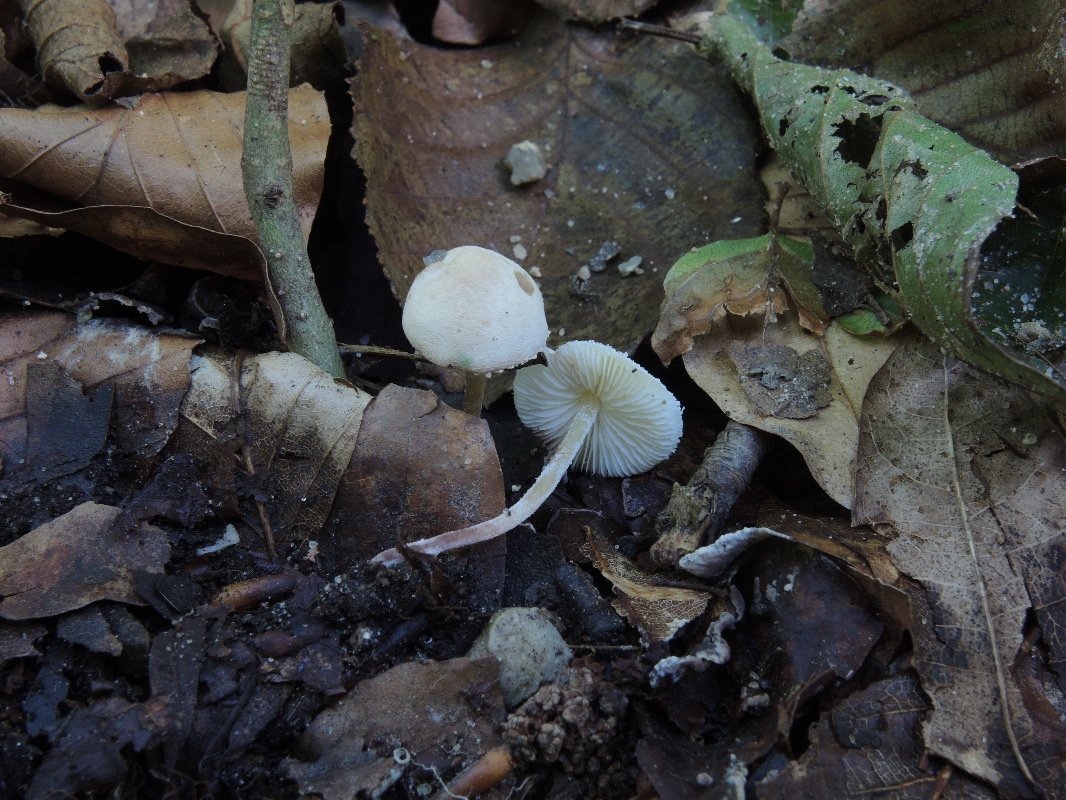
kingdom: Fungi
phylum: Basidiomycota
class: Agaricomycetes
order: Agaricales
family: Agaricaceae
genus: Cystolepiota
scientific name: Cystolepiota seminuda
